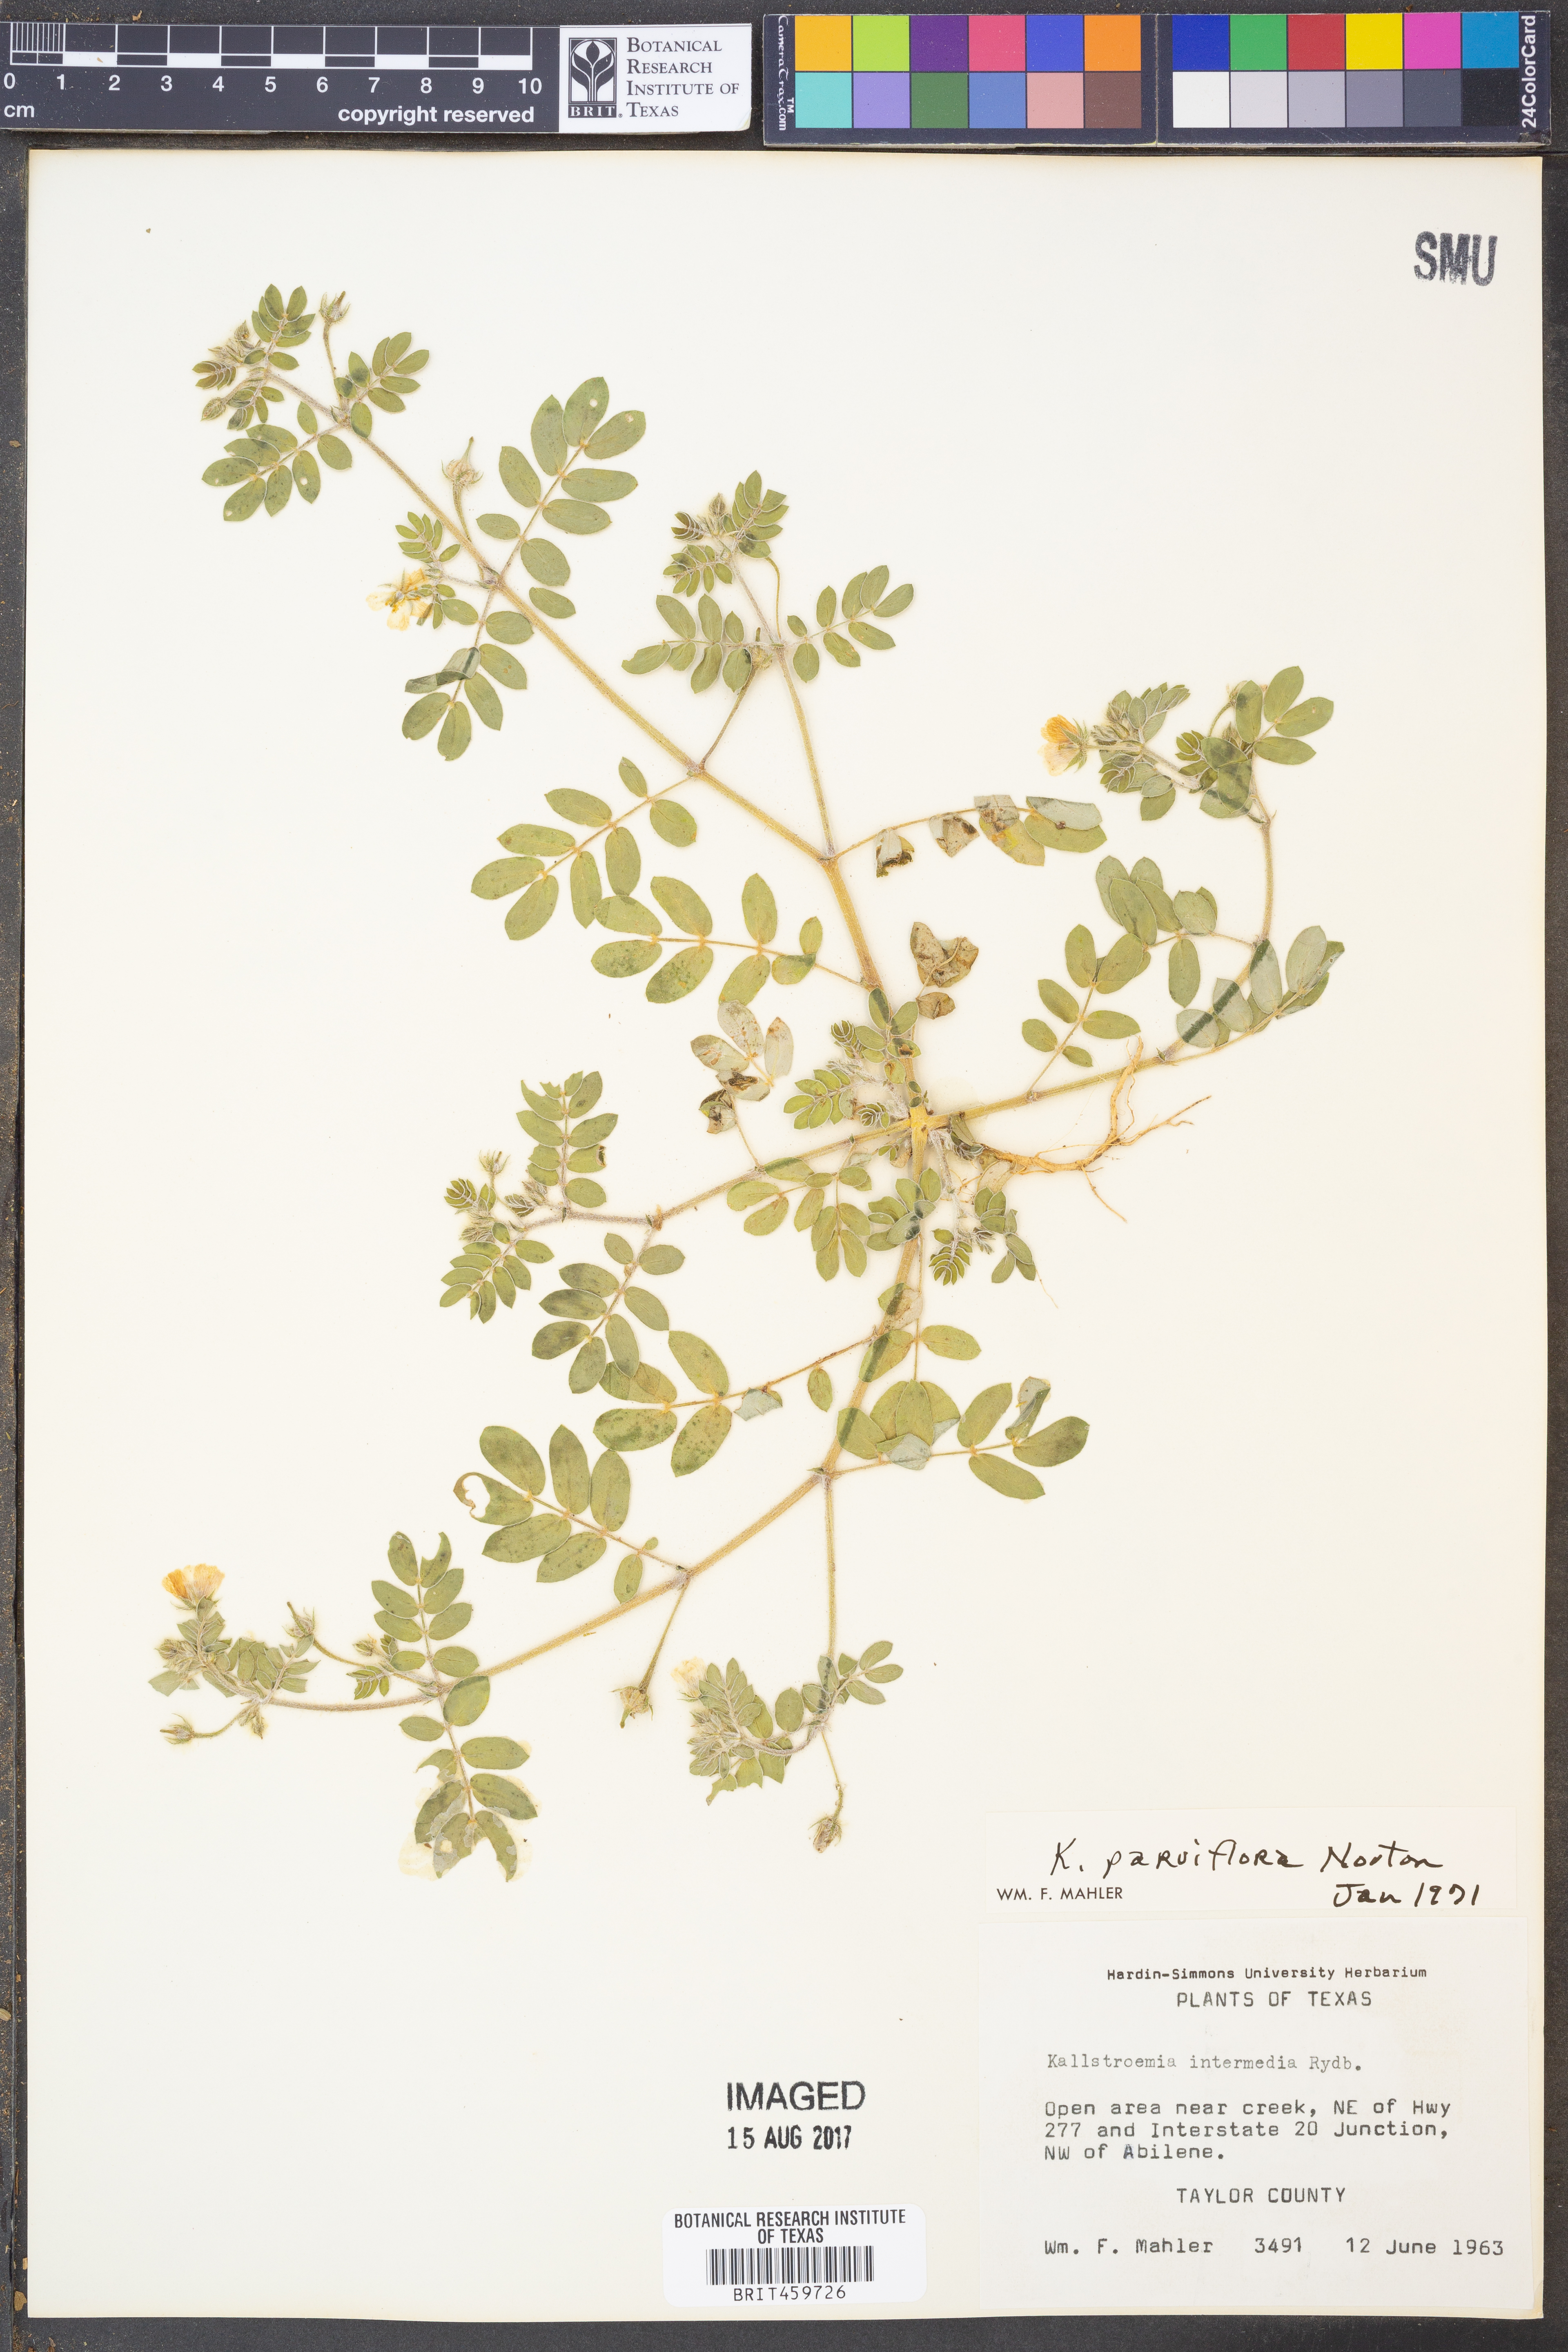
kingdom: Plantae
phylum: Tracheophyta
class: Magnoliopsida
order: Zygophyllales
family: Zygophyllaceae
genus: Kallstroemia
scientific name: Kallstroemia parviflora
